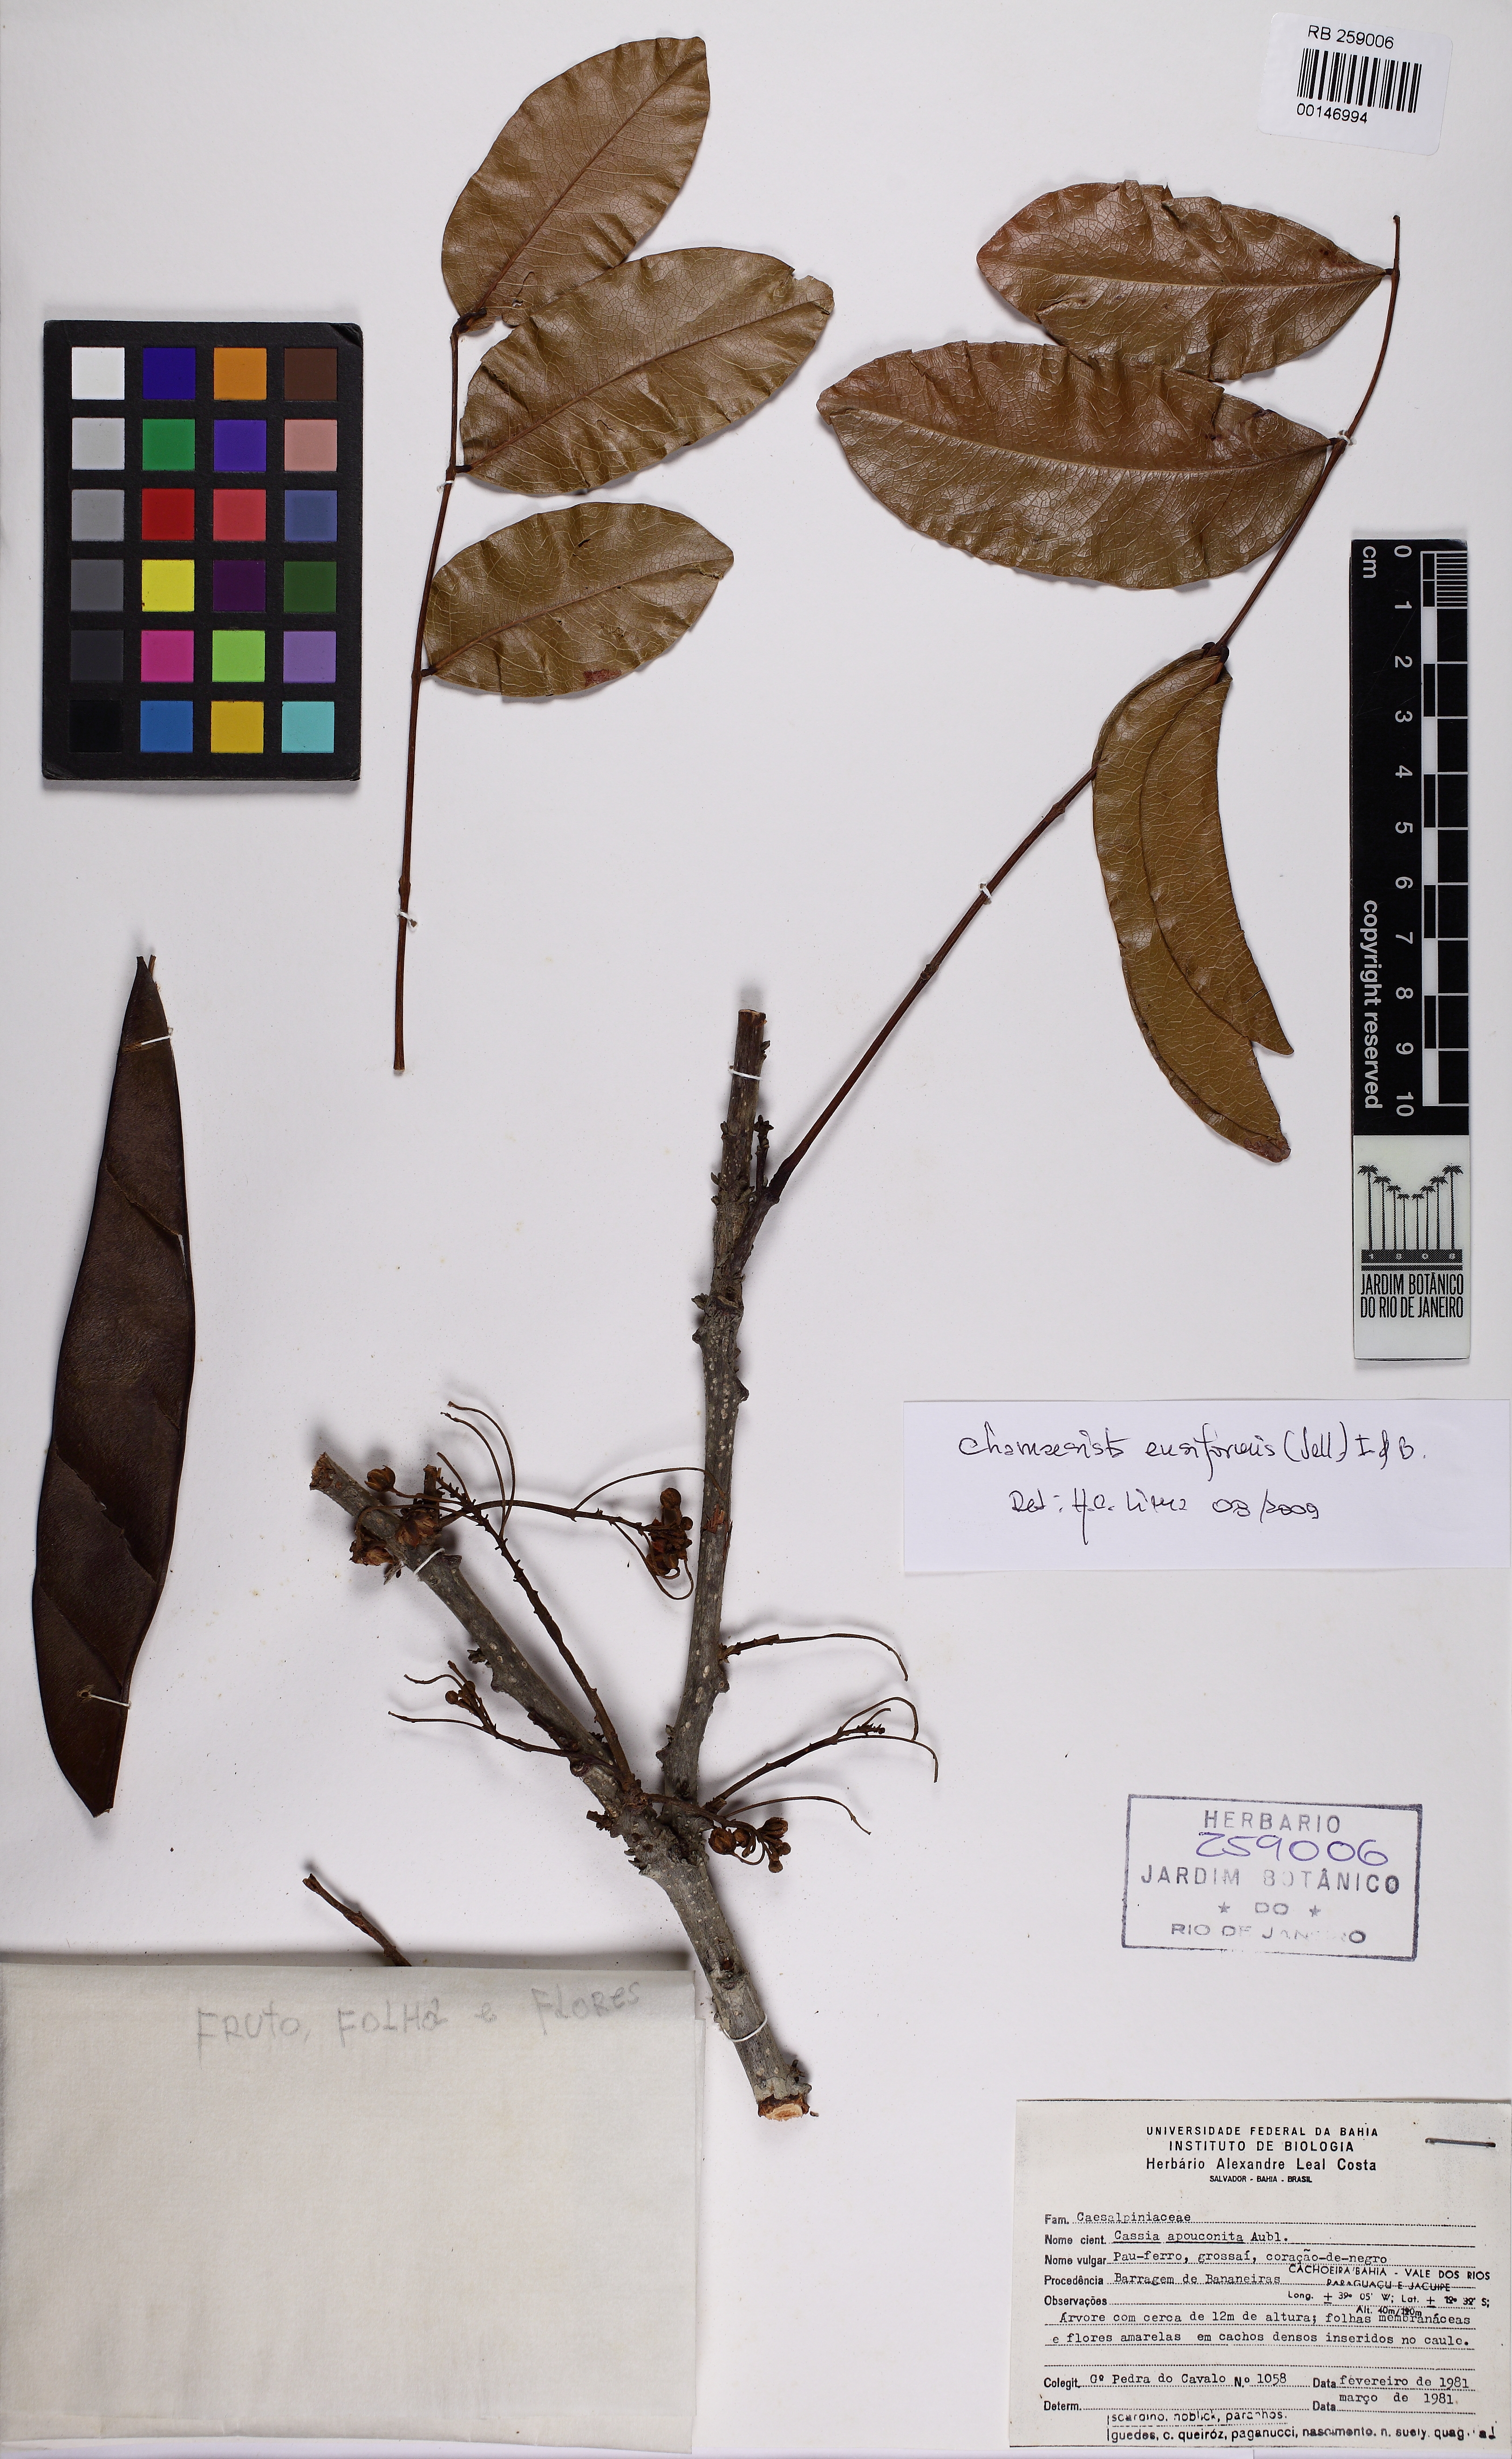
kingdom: Plantae
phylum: Tracheophyta
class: Magnoliopsida
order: Fabales
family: Fabaceae
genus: Chamaecrista
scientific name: Chamaecrista ensiformis
